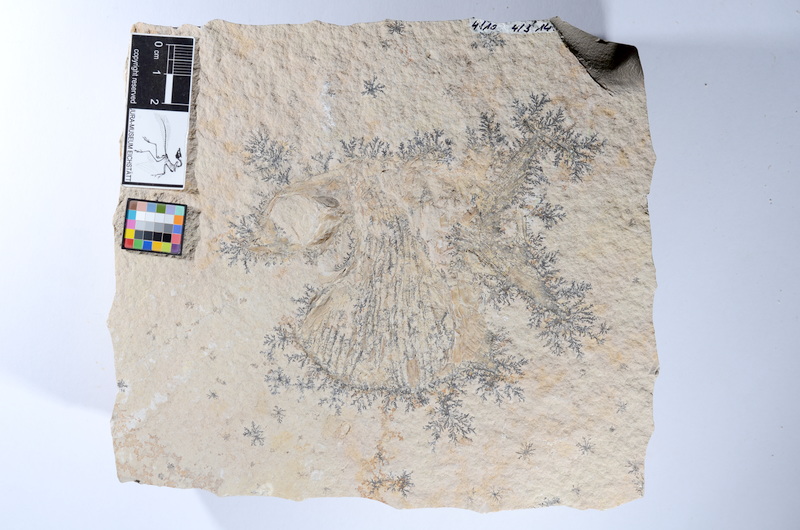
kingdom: Animalia
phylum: Chordata
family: Gyrodontidae
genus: Gyrodus
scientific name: Gyrodus hexagonus
